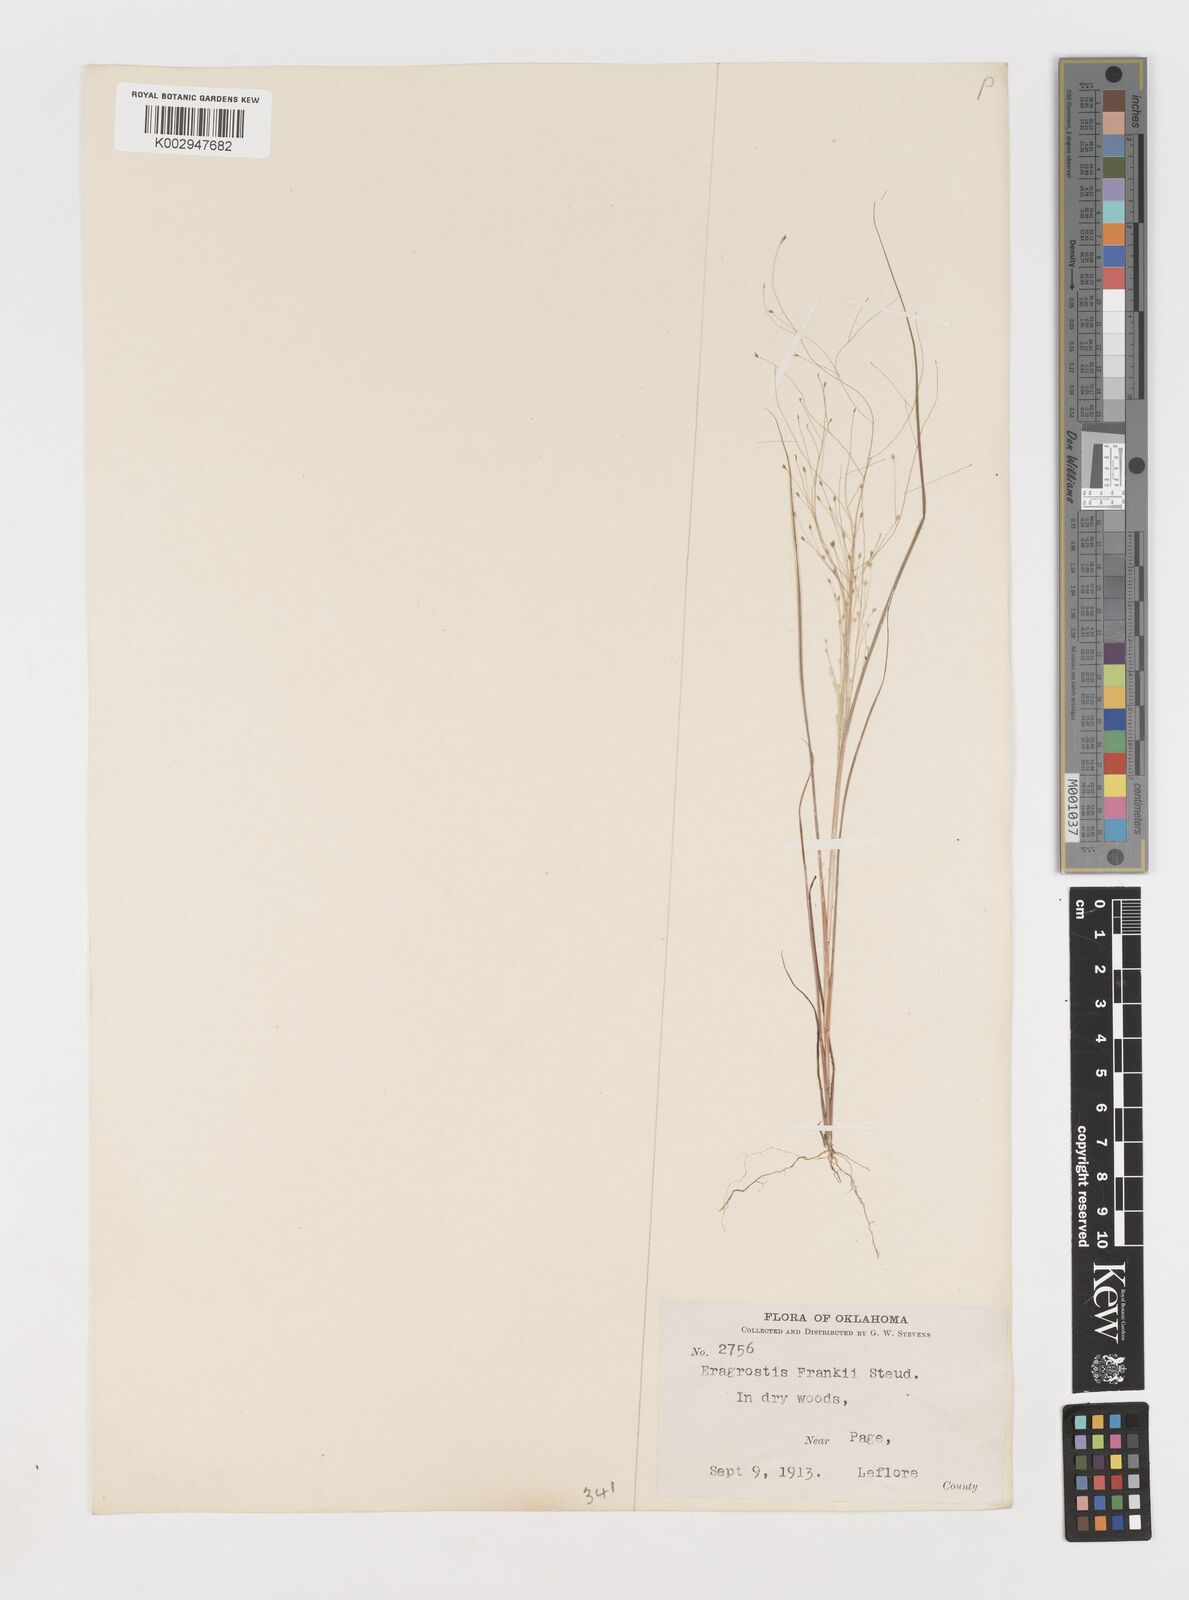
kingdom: Plantae
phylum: Tracheophyta
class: Liliopsida
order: Poales
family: Poaceae
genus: Eragrostis
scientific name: Eragrostis capillaris
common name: Hair-like lovegrass
